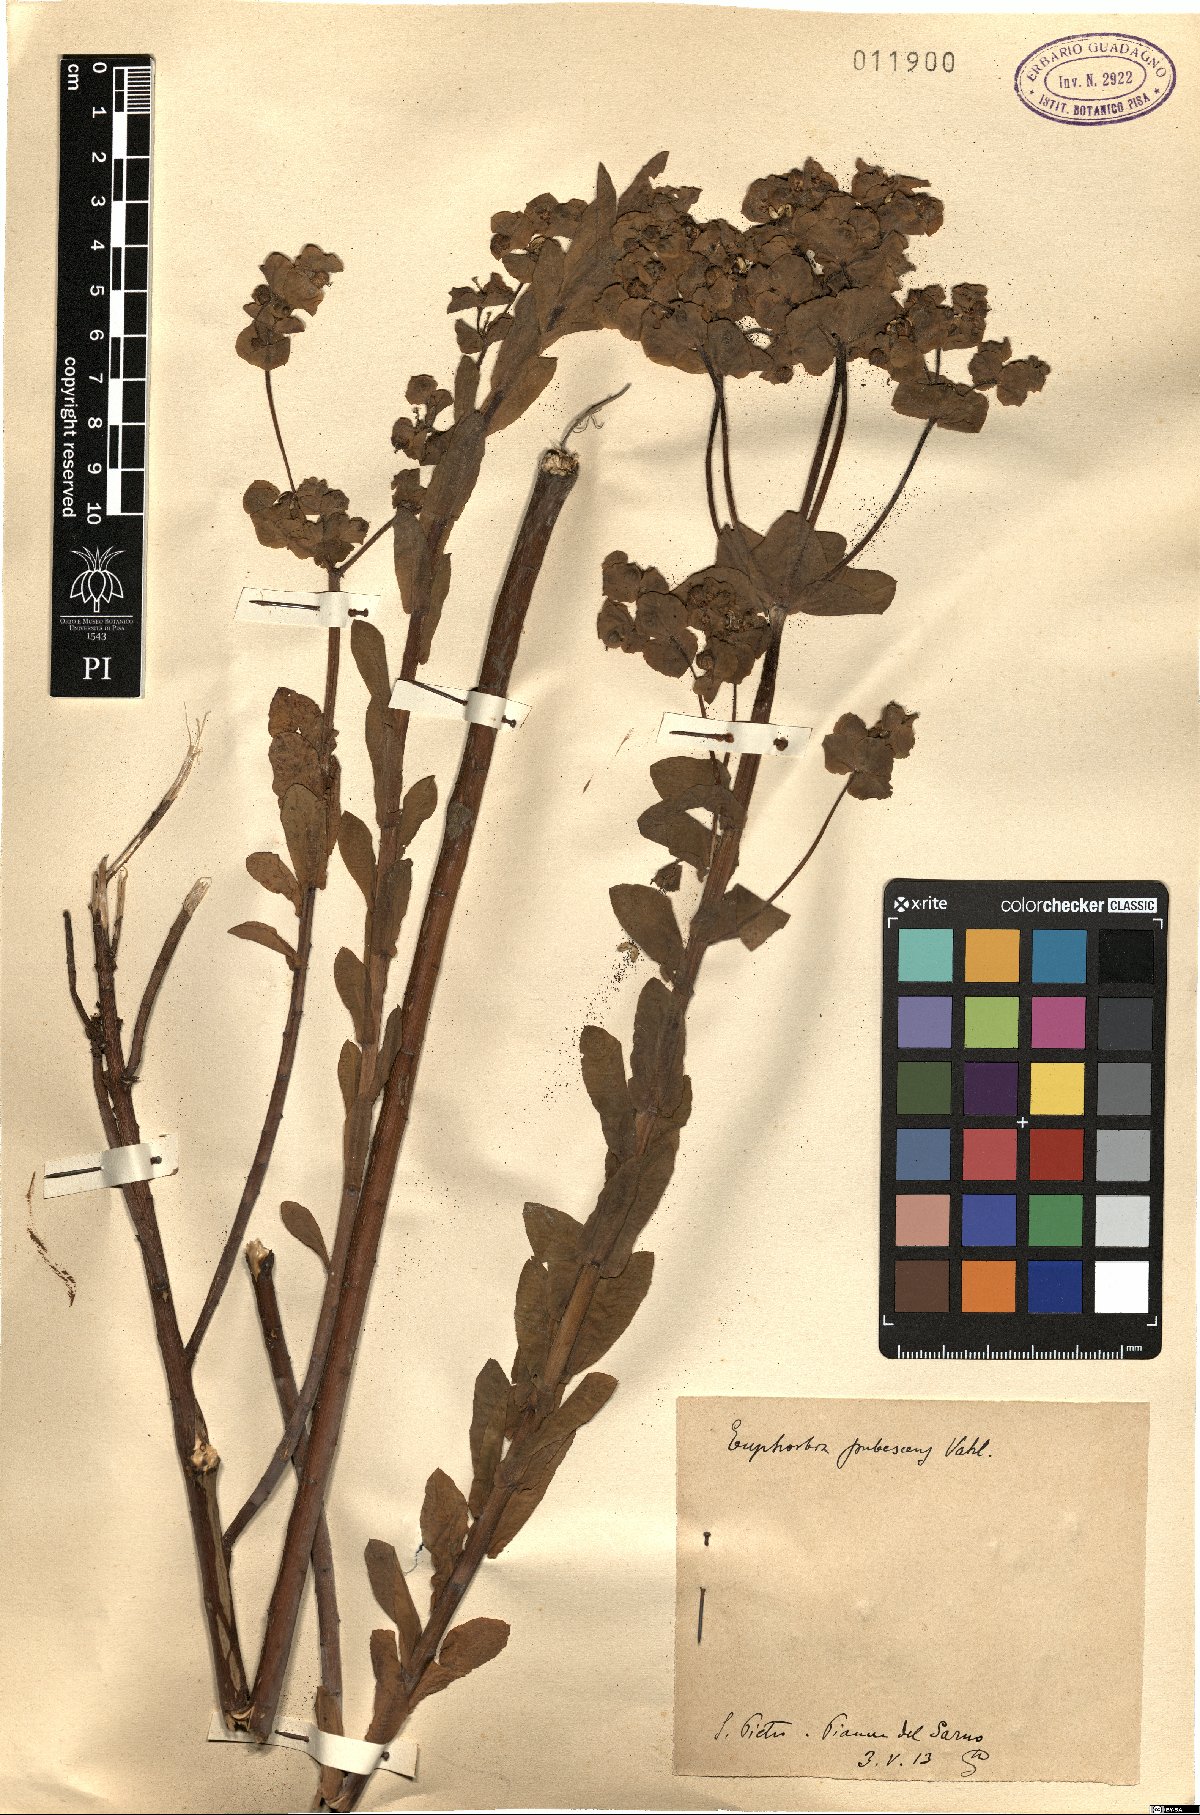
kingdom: Plantae
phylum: Tracheophyta
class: Magnoliopsida
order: Malpighiales
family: Euphorbiaceae
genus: Euphorbia
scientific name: Euphorbia hirsuta
